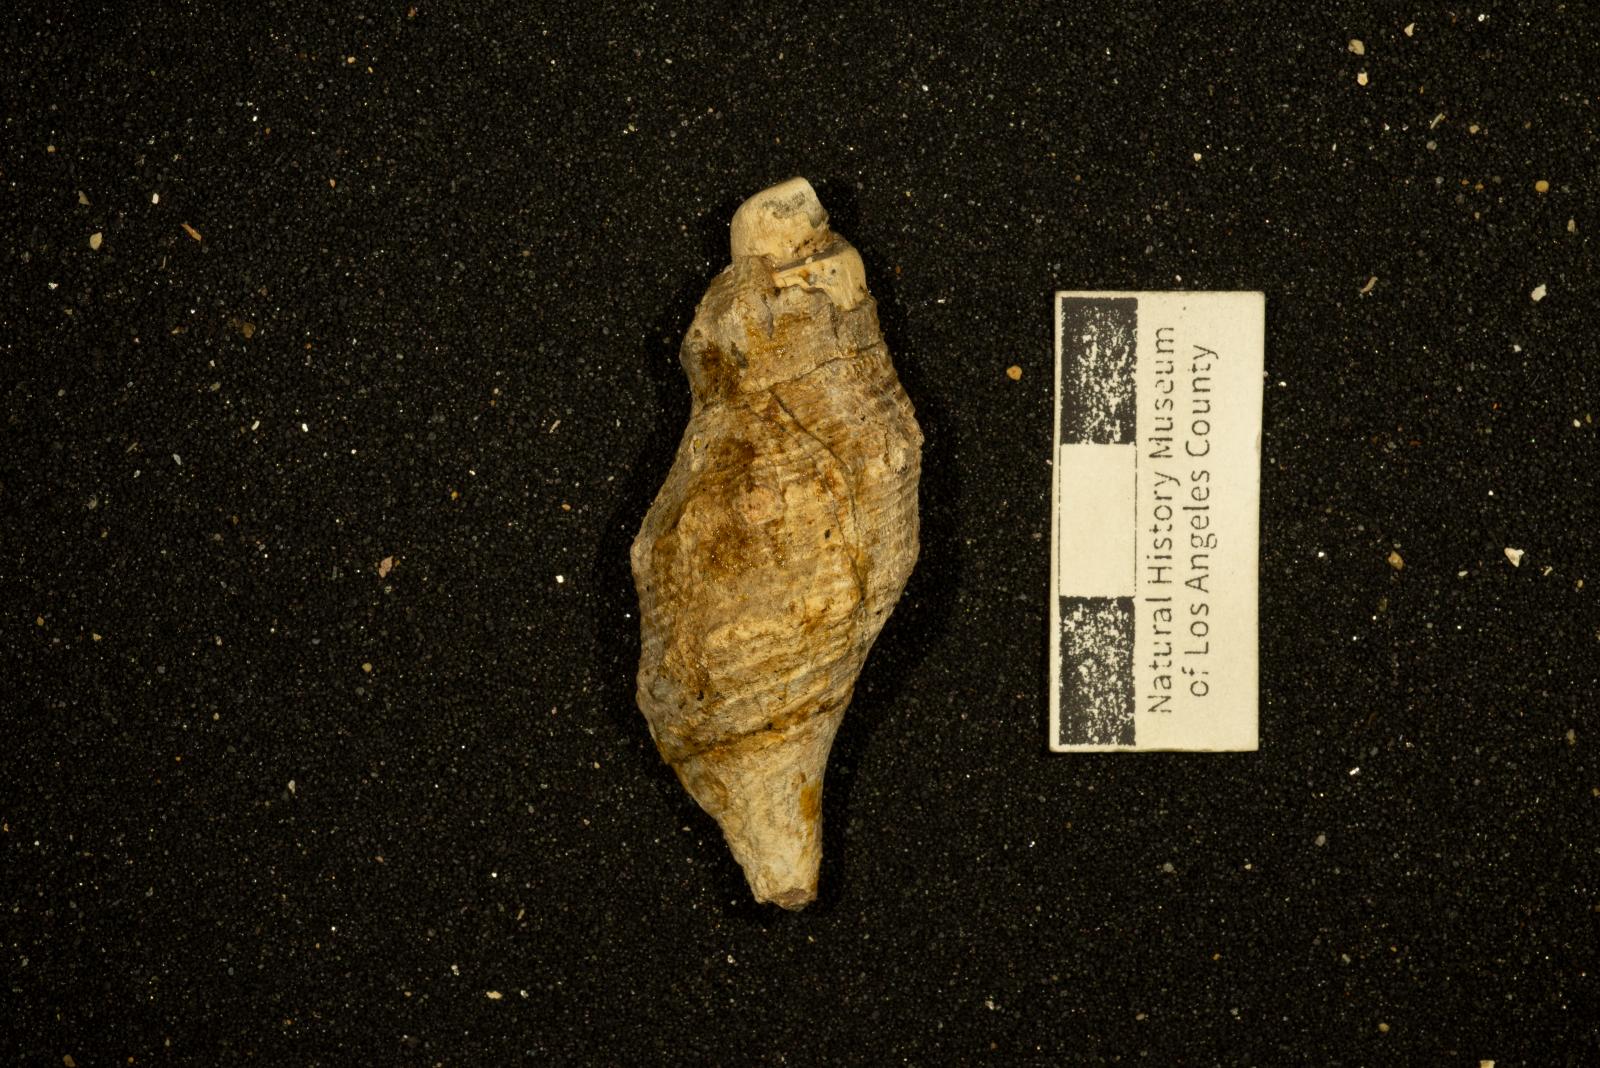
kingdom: Animalia
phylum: Mollusca
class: Gastropoda
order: Neogastropoda
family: Perissityidae
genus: Zinsitys
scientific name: Zinsitys anassa
